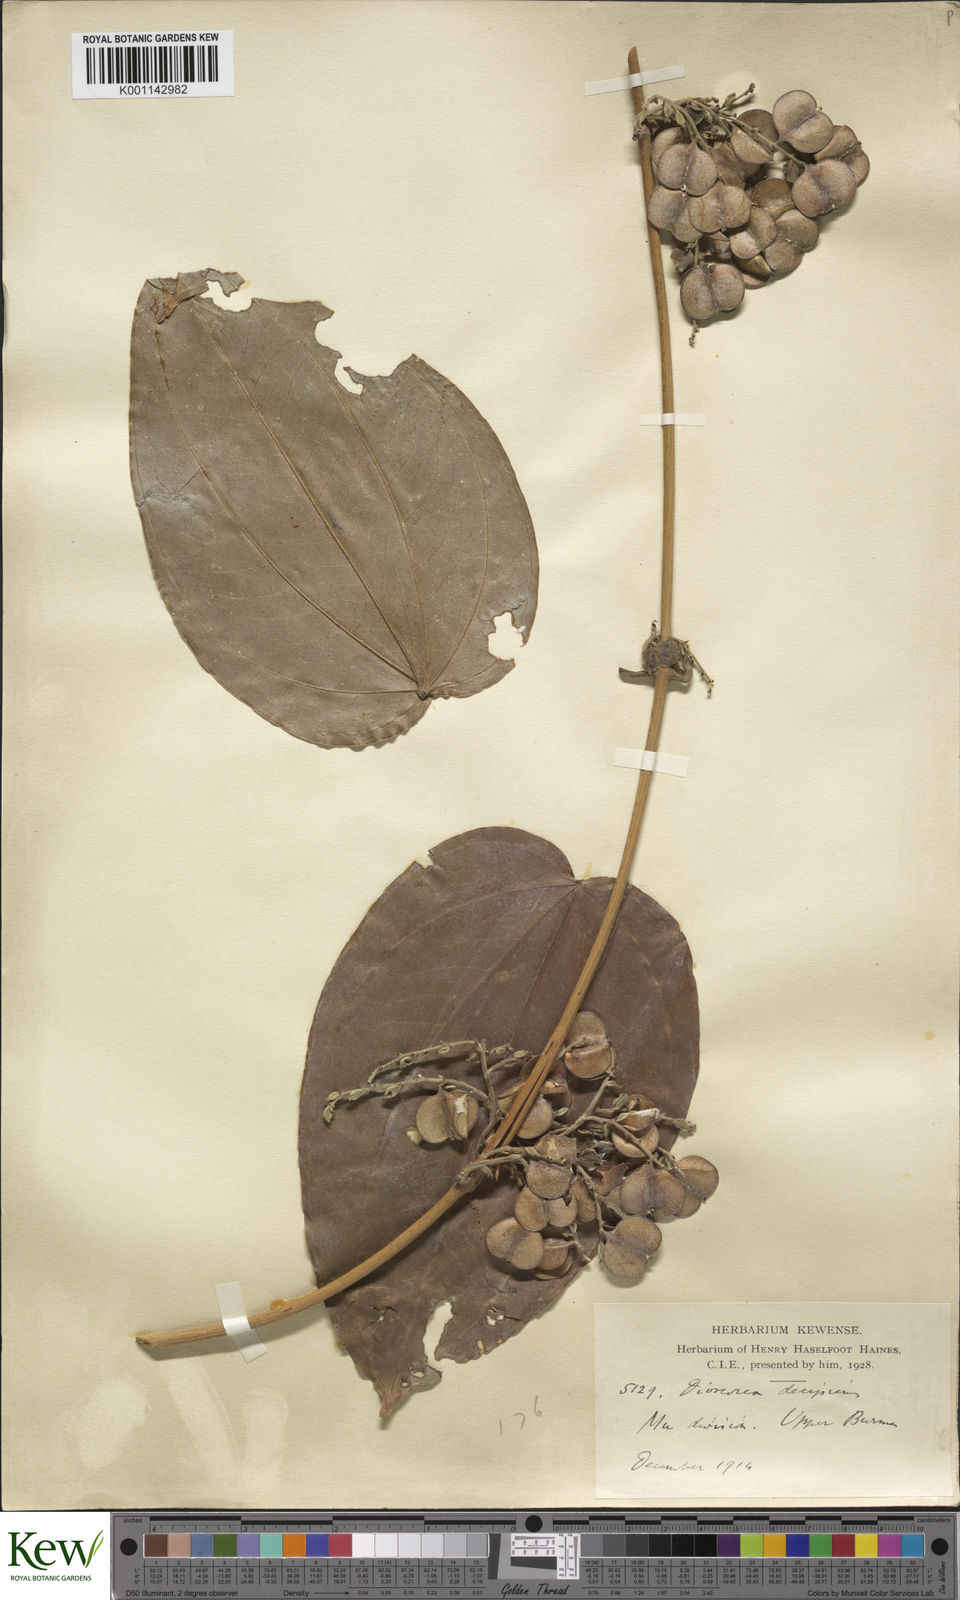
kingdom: Plantae
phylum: Tracheophyta
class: Liliopsida
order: Dioscoreales
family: Dioscoreaceae
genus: Dioscorea
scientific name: Dioscorea decipiens
